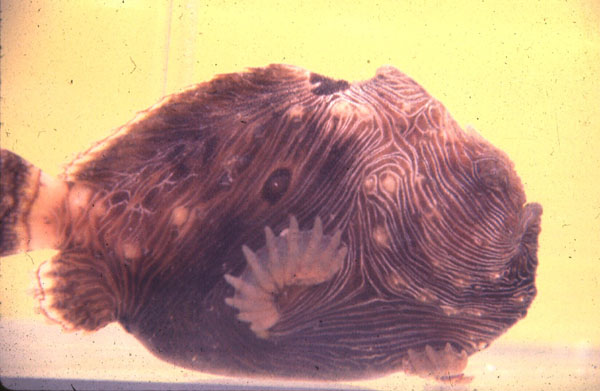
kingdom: Animalia
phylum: Chordata
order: Lophiiformes
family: Antennariidae
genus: Antennatus
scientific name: Antennatus tuberosus
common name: Reticulated frogfish
